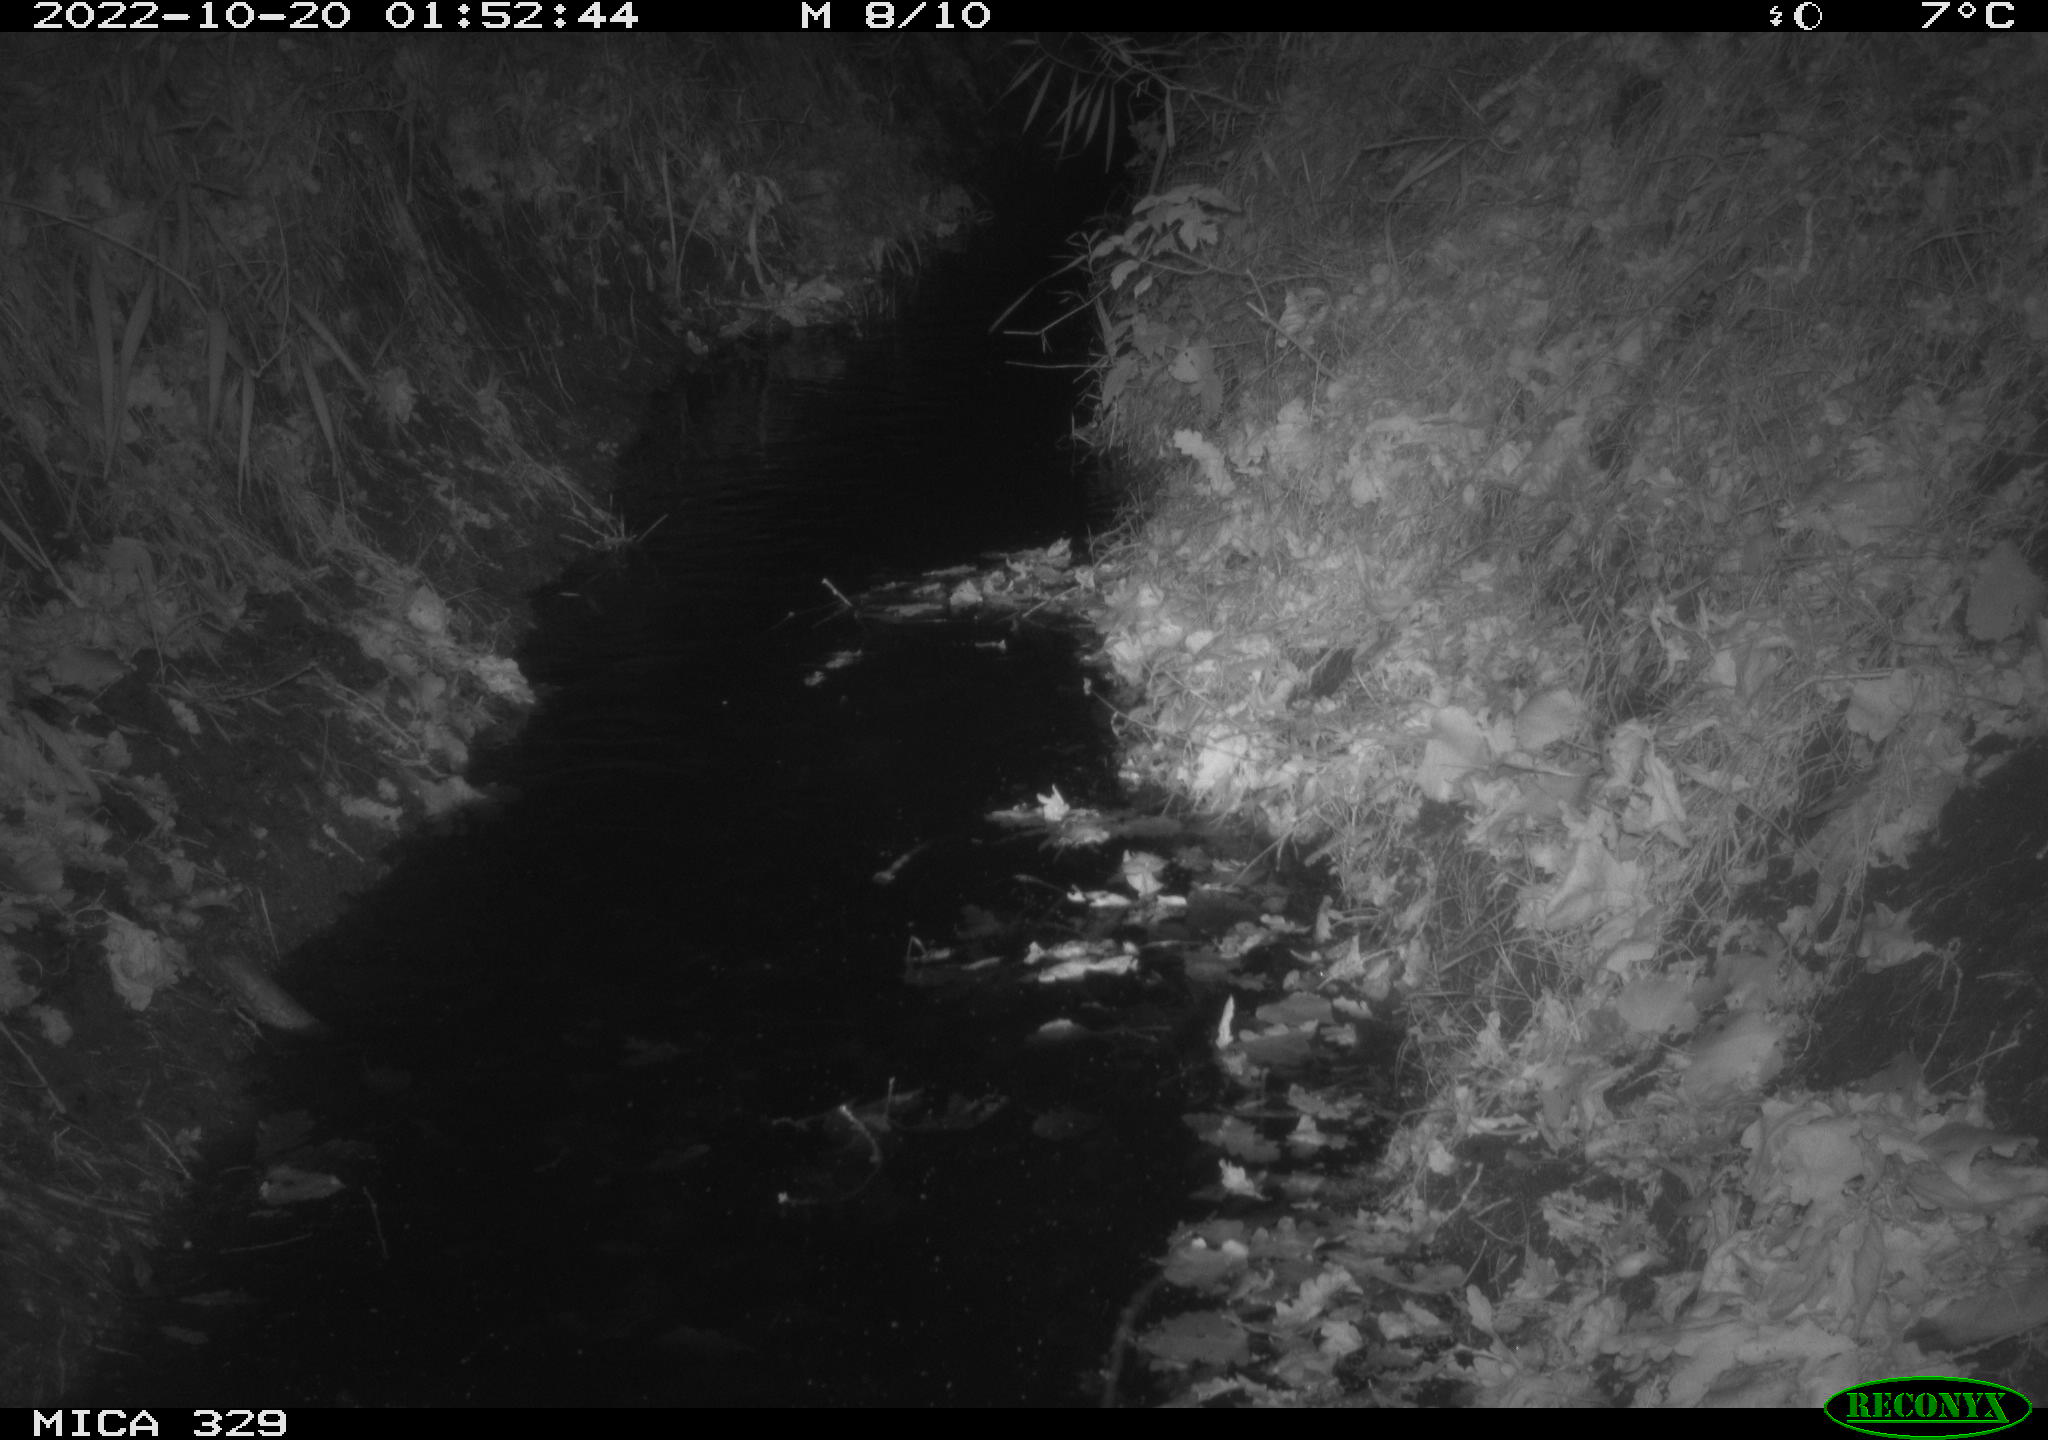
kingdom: Animalia
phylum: Chordata
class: Mammalia
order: Rodentia
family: Cricetidae
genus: Ondatra
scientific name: Ondatra zibethicus
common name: Muskrat
